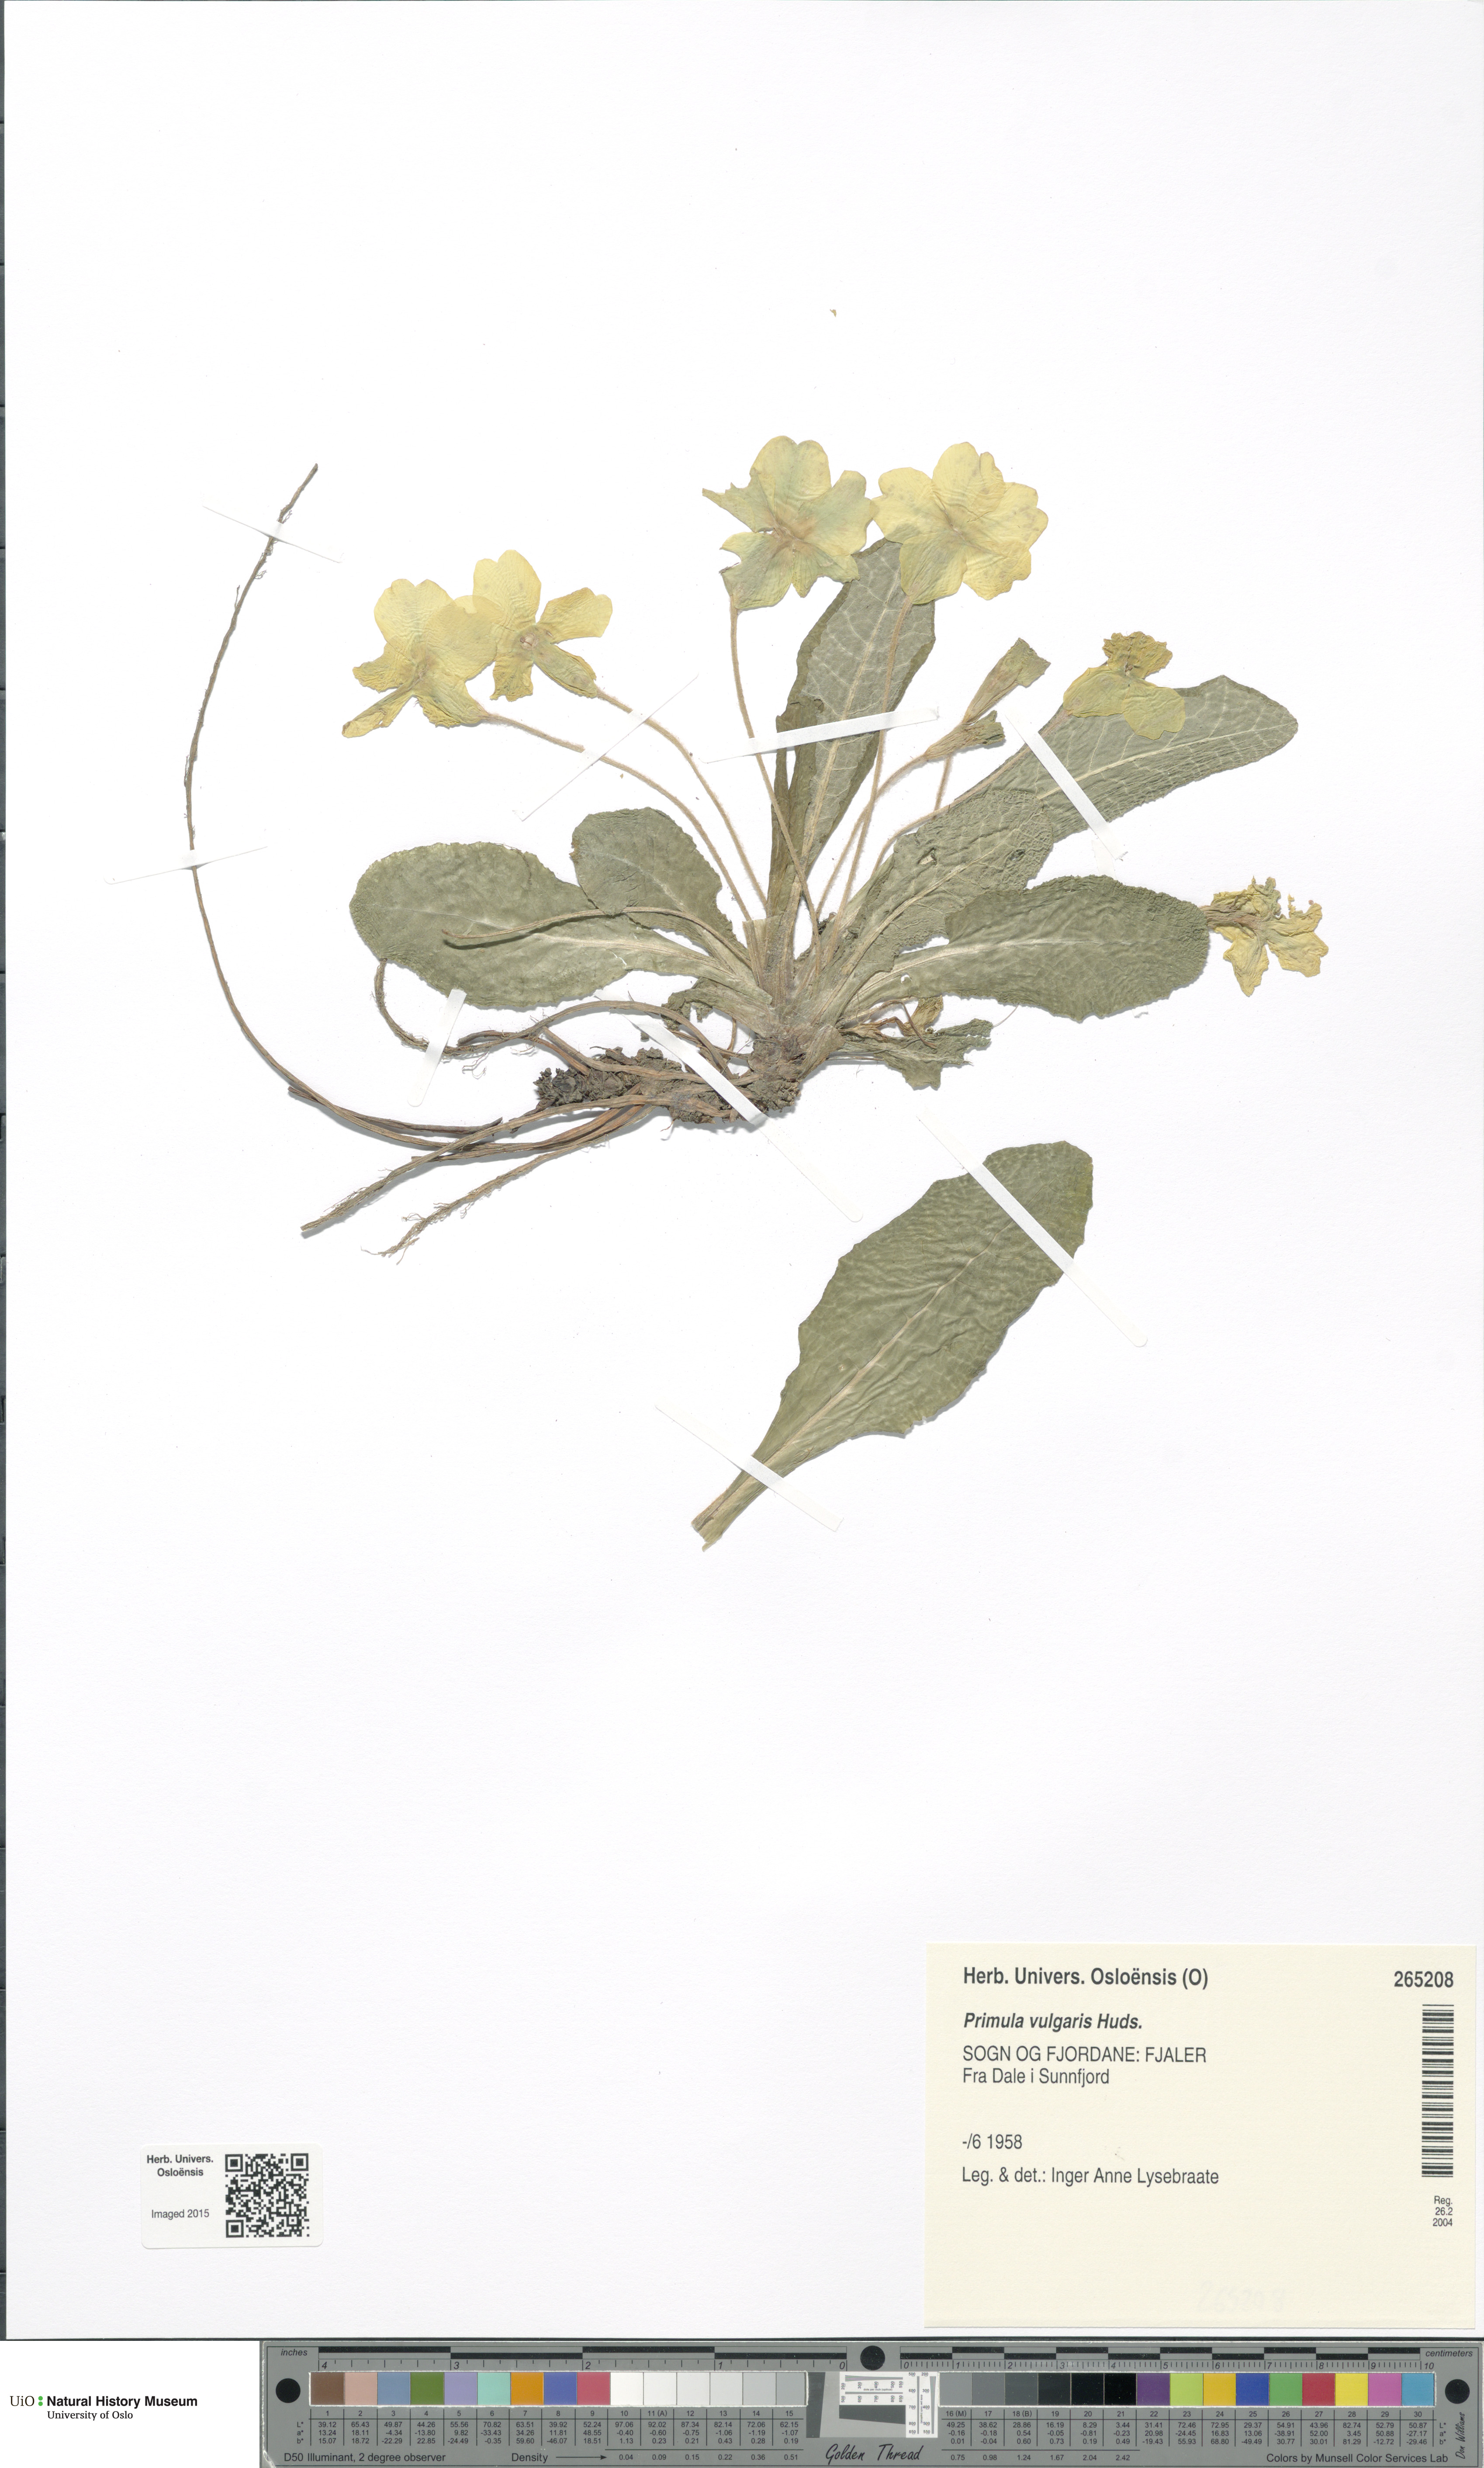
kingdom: Plantae
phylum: Tracheophyta
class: Magnoliopsida
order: Ericales
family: Primulaceae
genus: Primula
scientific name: Primula vulgaris
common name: Primrose
